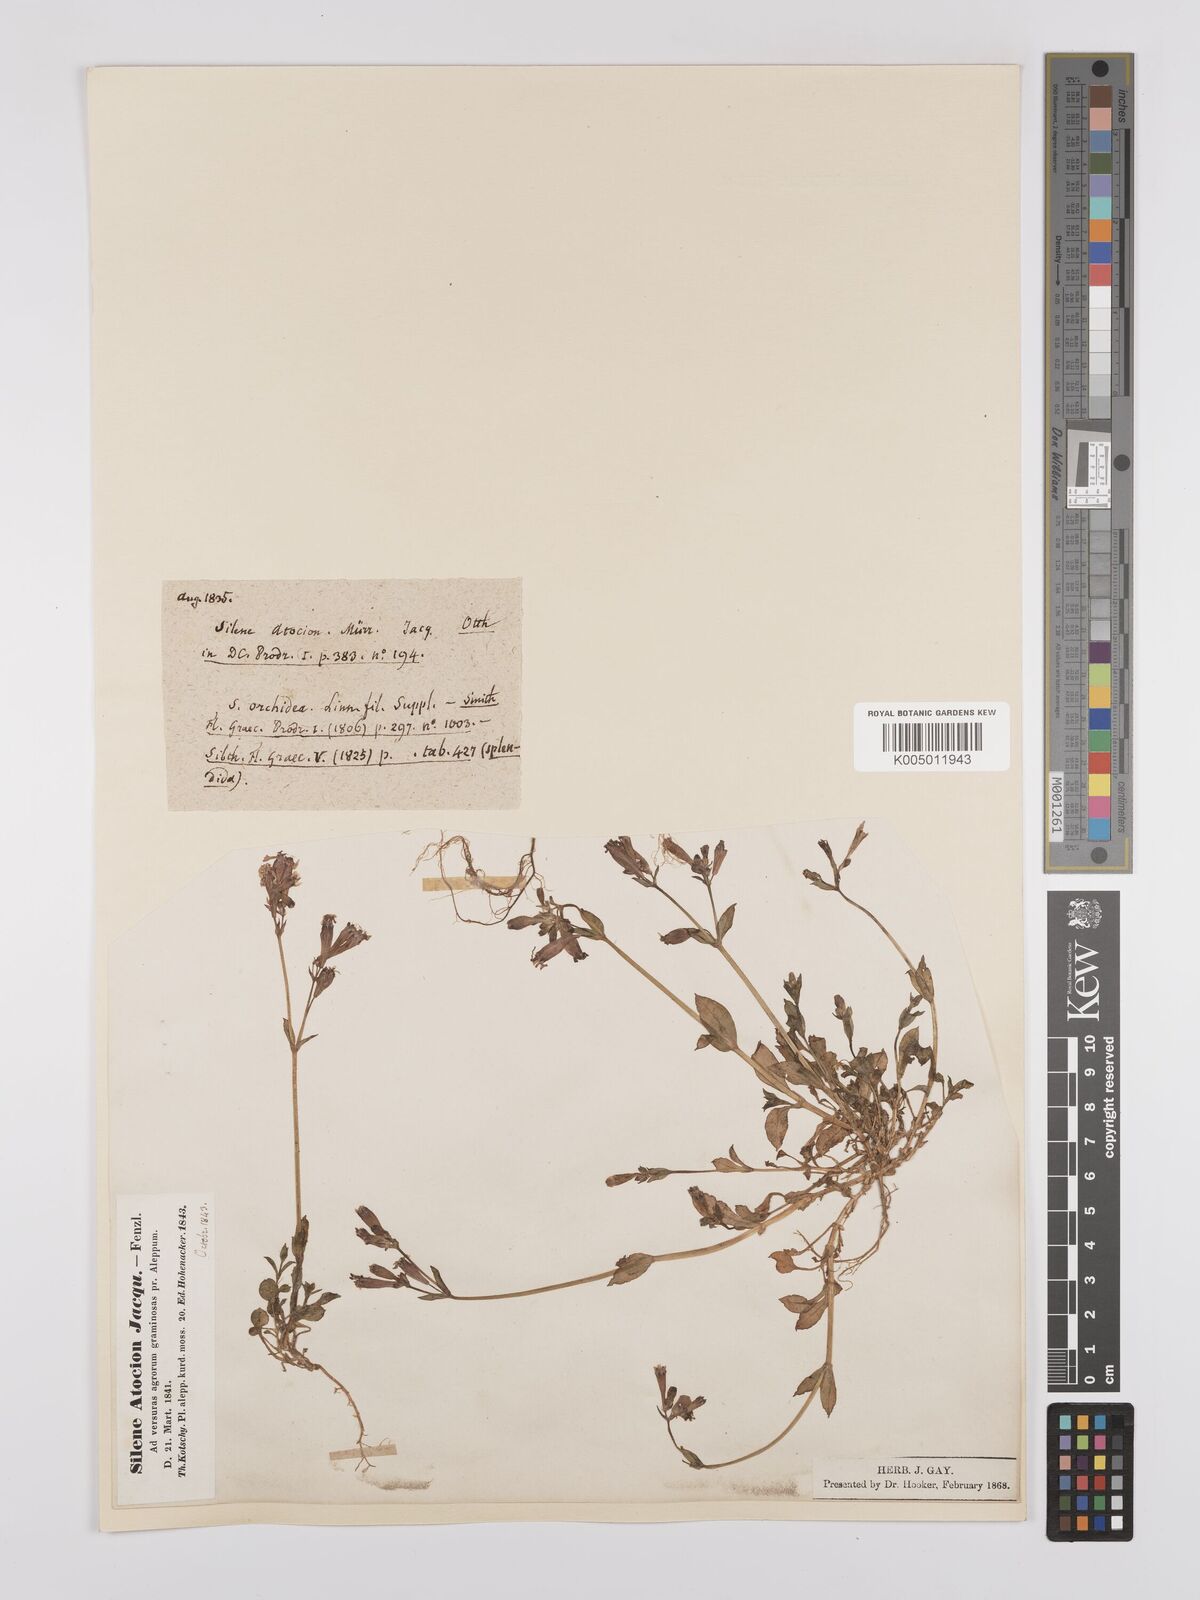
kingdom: Plantae
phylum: Tracheophyta
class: Magnoliopsida
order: Caryophyllales
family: Caryophyllaceae
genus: Silene
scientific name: Silene aegyptiaca
